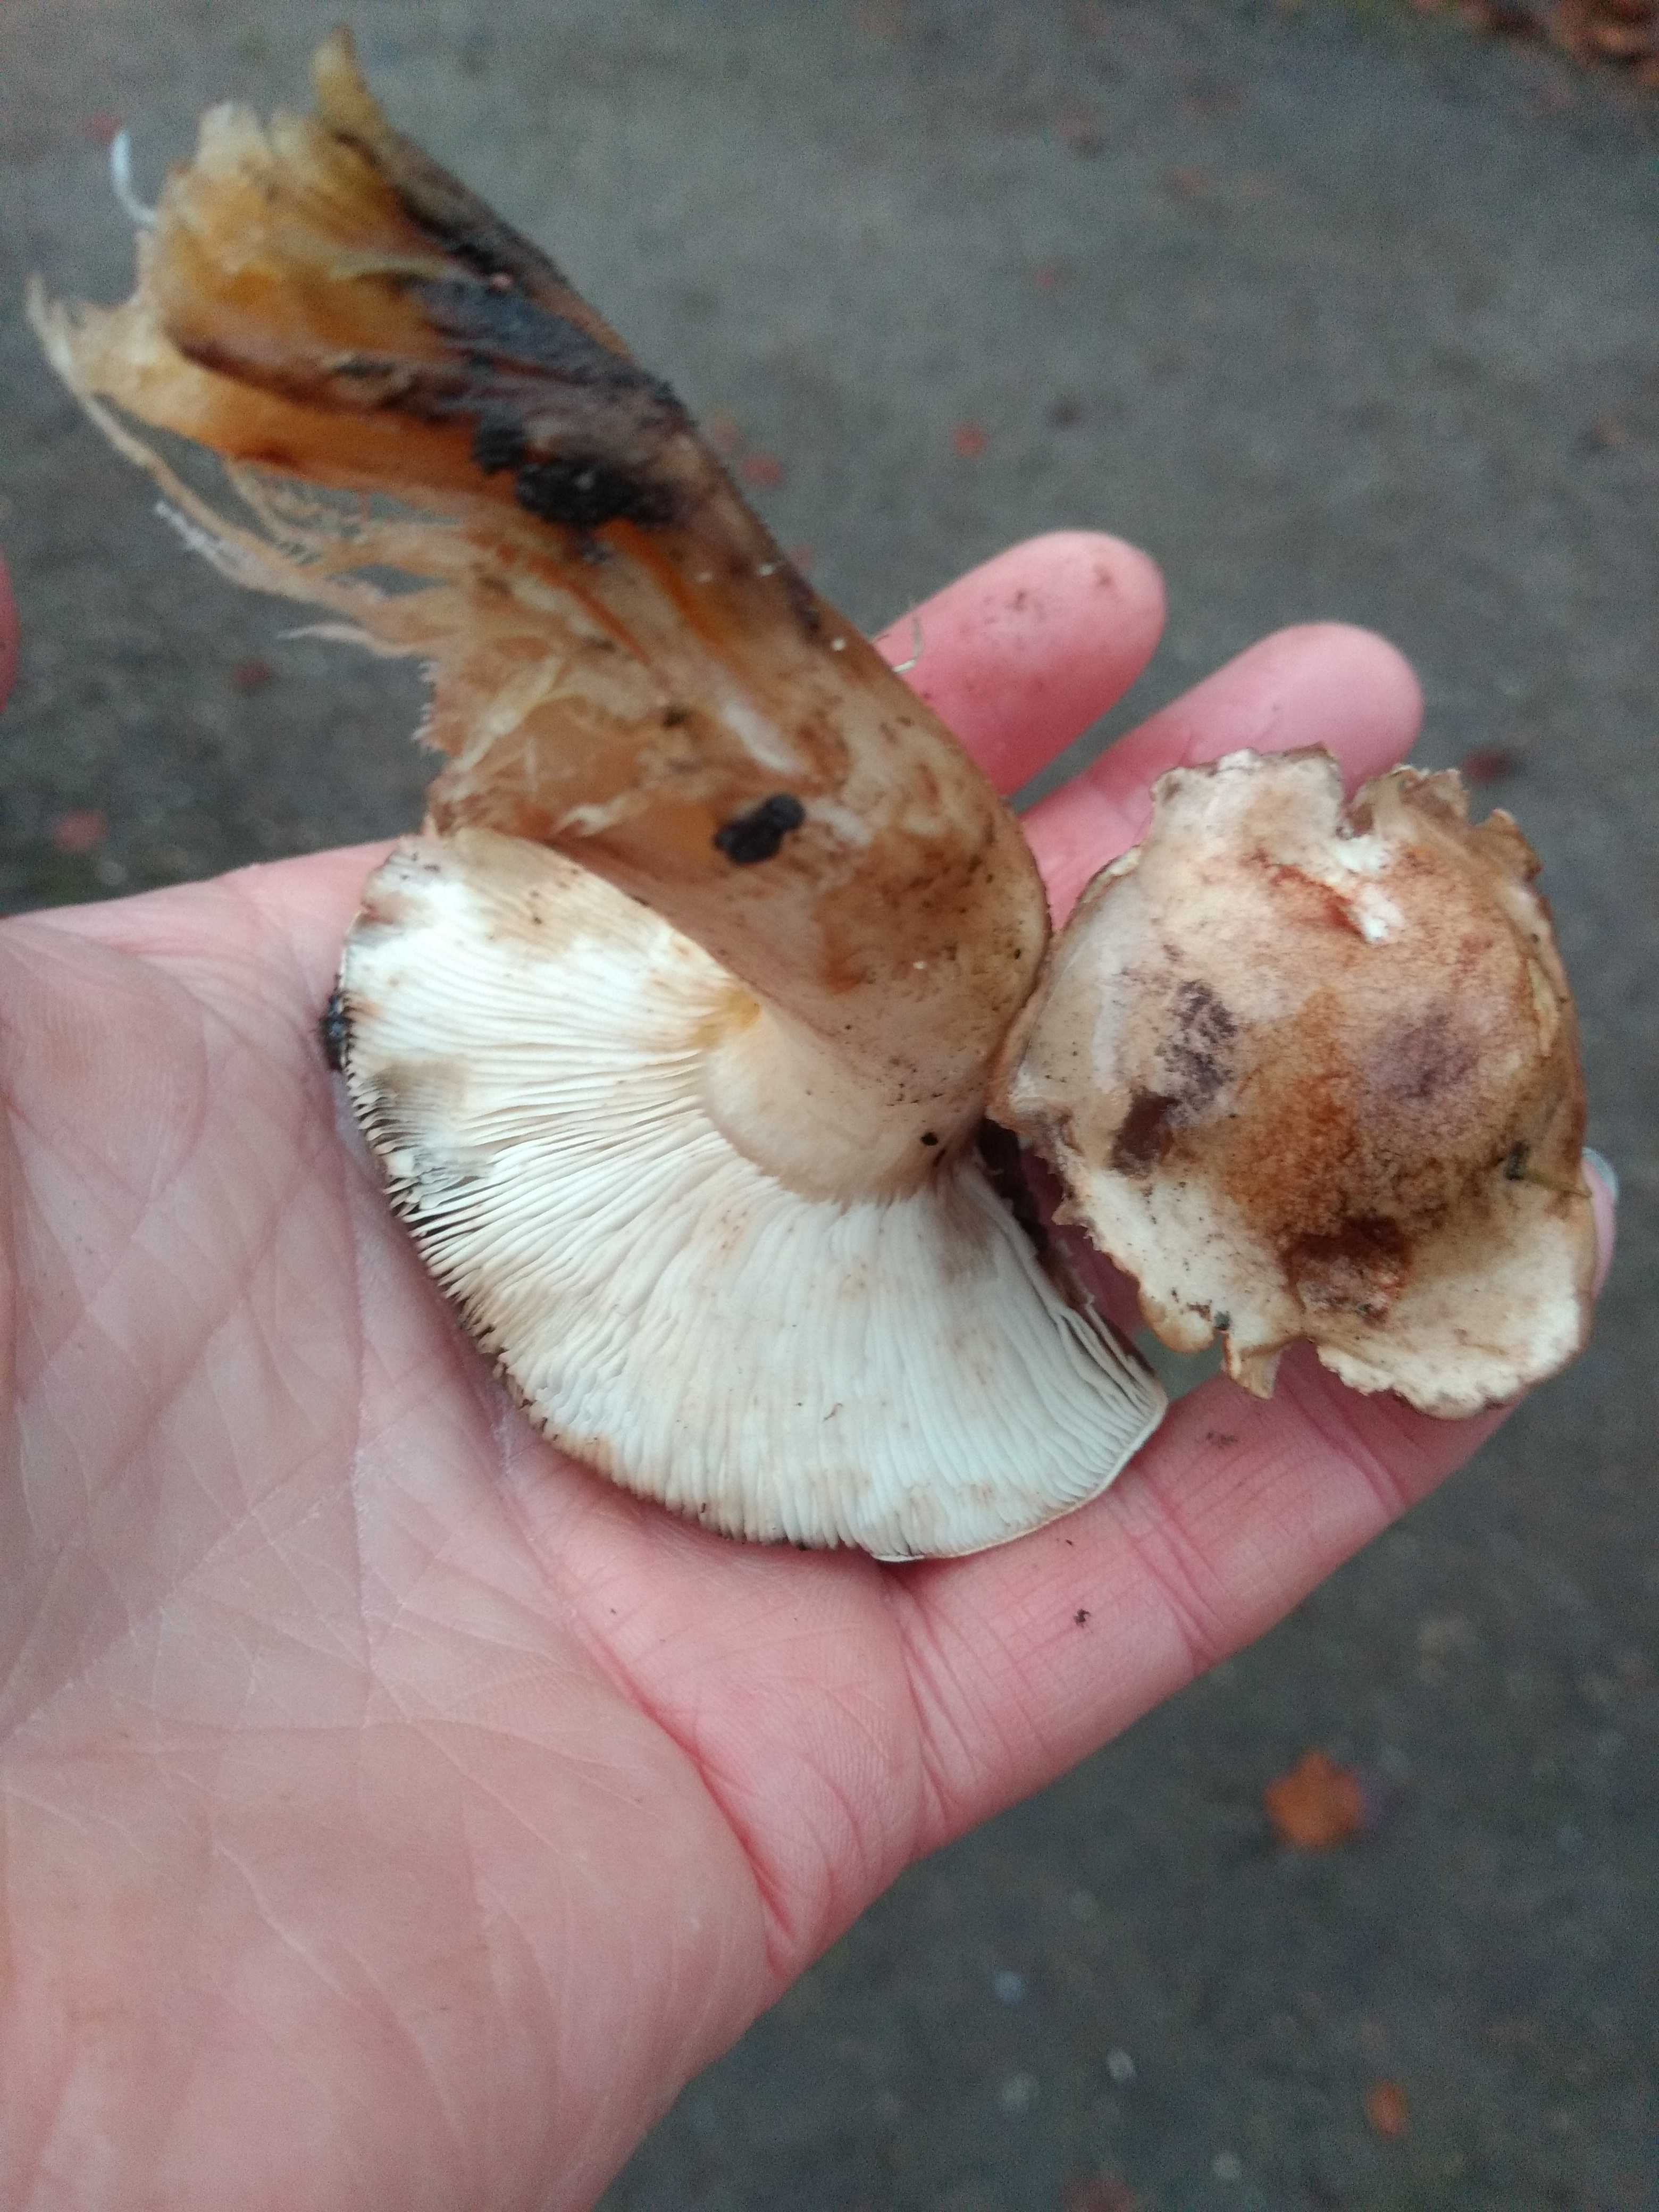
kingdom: Fungi
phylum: Basidiomycota
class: Agaricomycetes
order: Agaricales
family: Tricholomataceae
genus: Tricholoma
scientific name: Tricholoma populinum
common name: poppel-ridderhat
